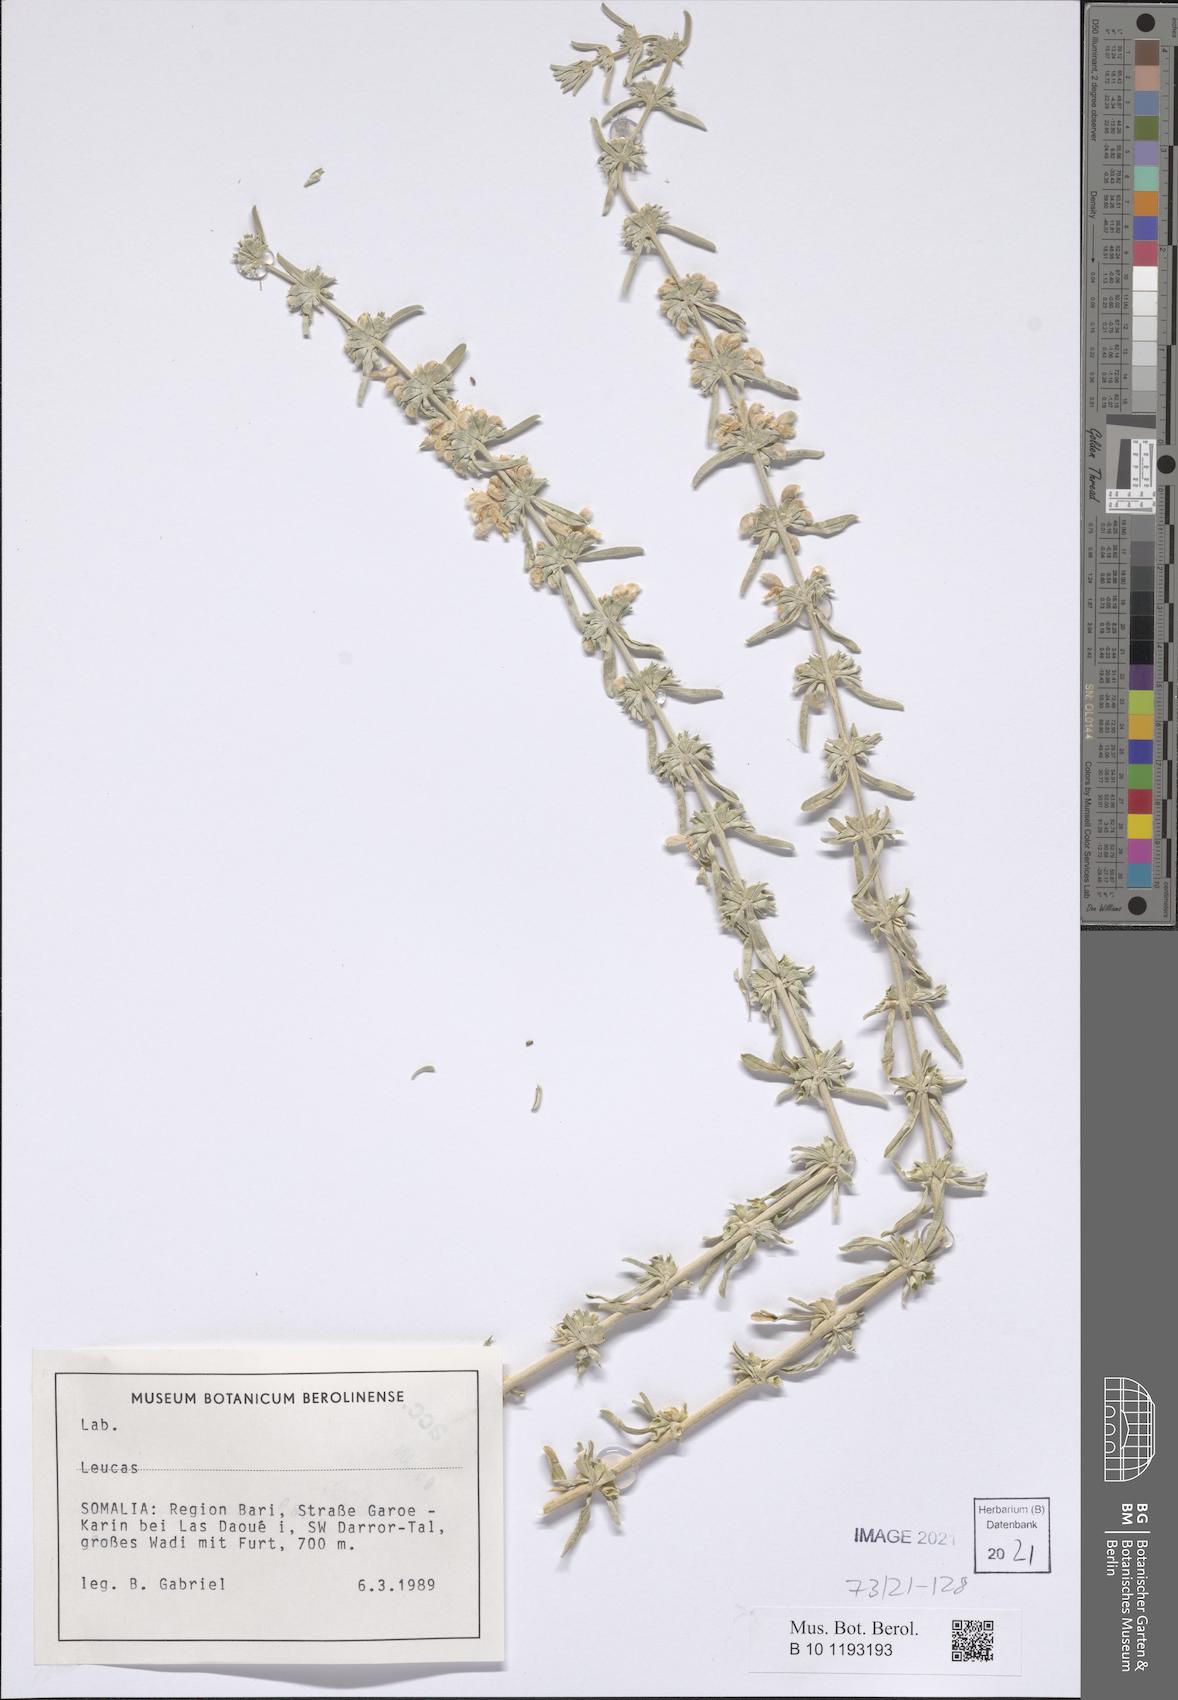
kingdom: Plantae
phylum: Tracheophyta
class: Magnoliopsida
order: Lamiales
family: Lamiaceae
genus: Leucas
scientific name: Leucas
